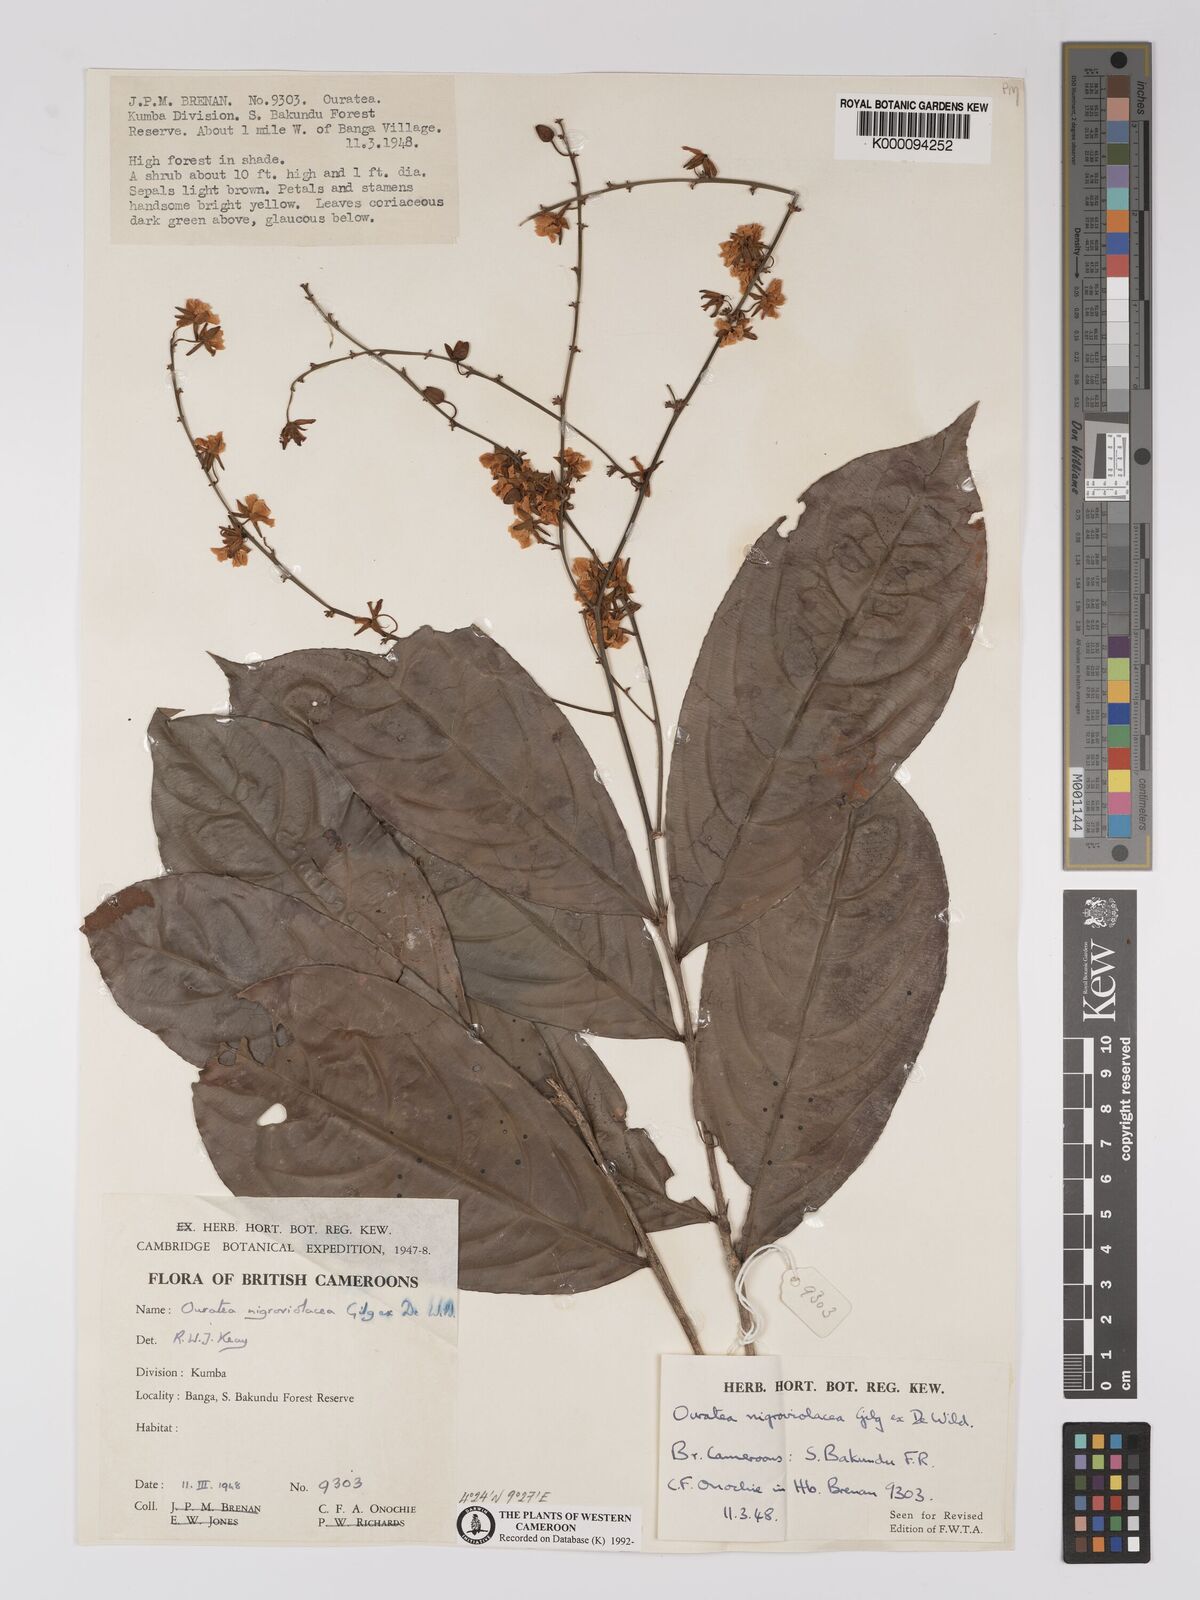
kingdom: Plantae
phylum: Tracheophyta
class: Magnoliopsida
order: Malpighiales
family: Ochnaceae
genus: Campylospermum
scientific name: Campylospermum calanthum
